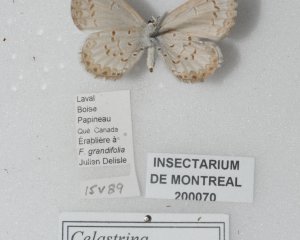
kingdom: Animalia
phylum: Arthropoda
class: Insecta
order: Lepidoptera
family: Lycaenidae
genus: Celastrina
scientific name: Celastrina lucia
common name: Northern Spring Azure
